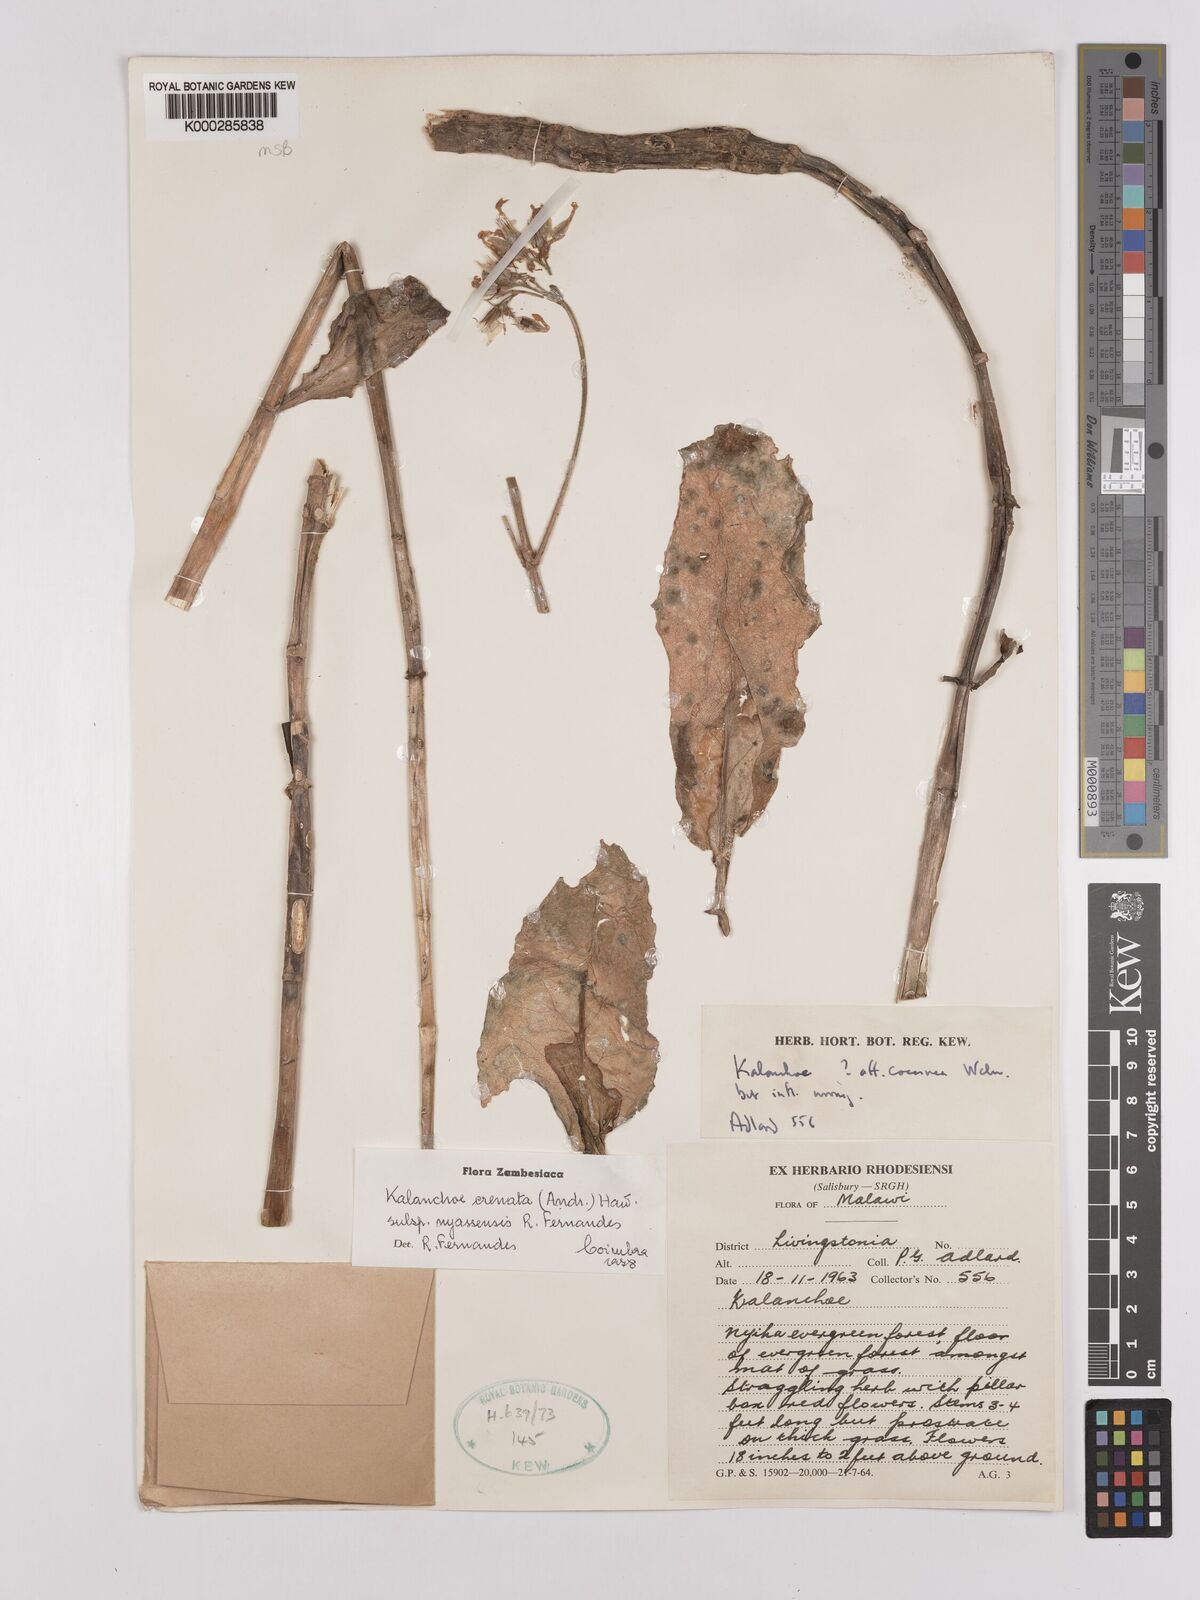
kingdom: Plantae
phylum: Tracheophyta
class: Magnoliopsida
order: Saxifragales
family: Crassulaceae
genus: Kalanchoe
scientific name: Kalanchoe crenata
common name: Neverdie
